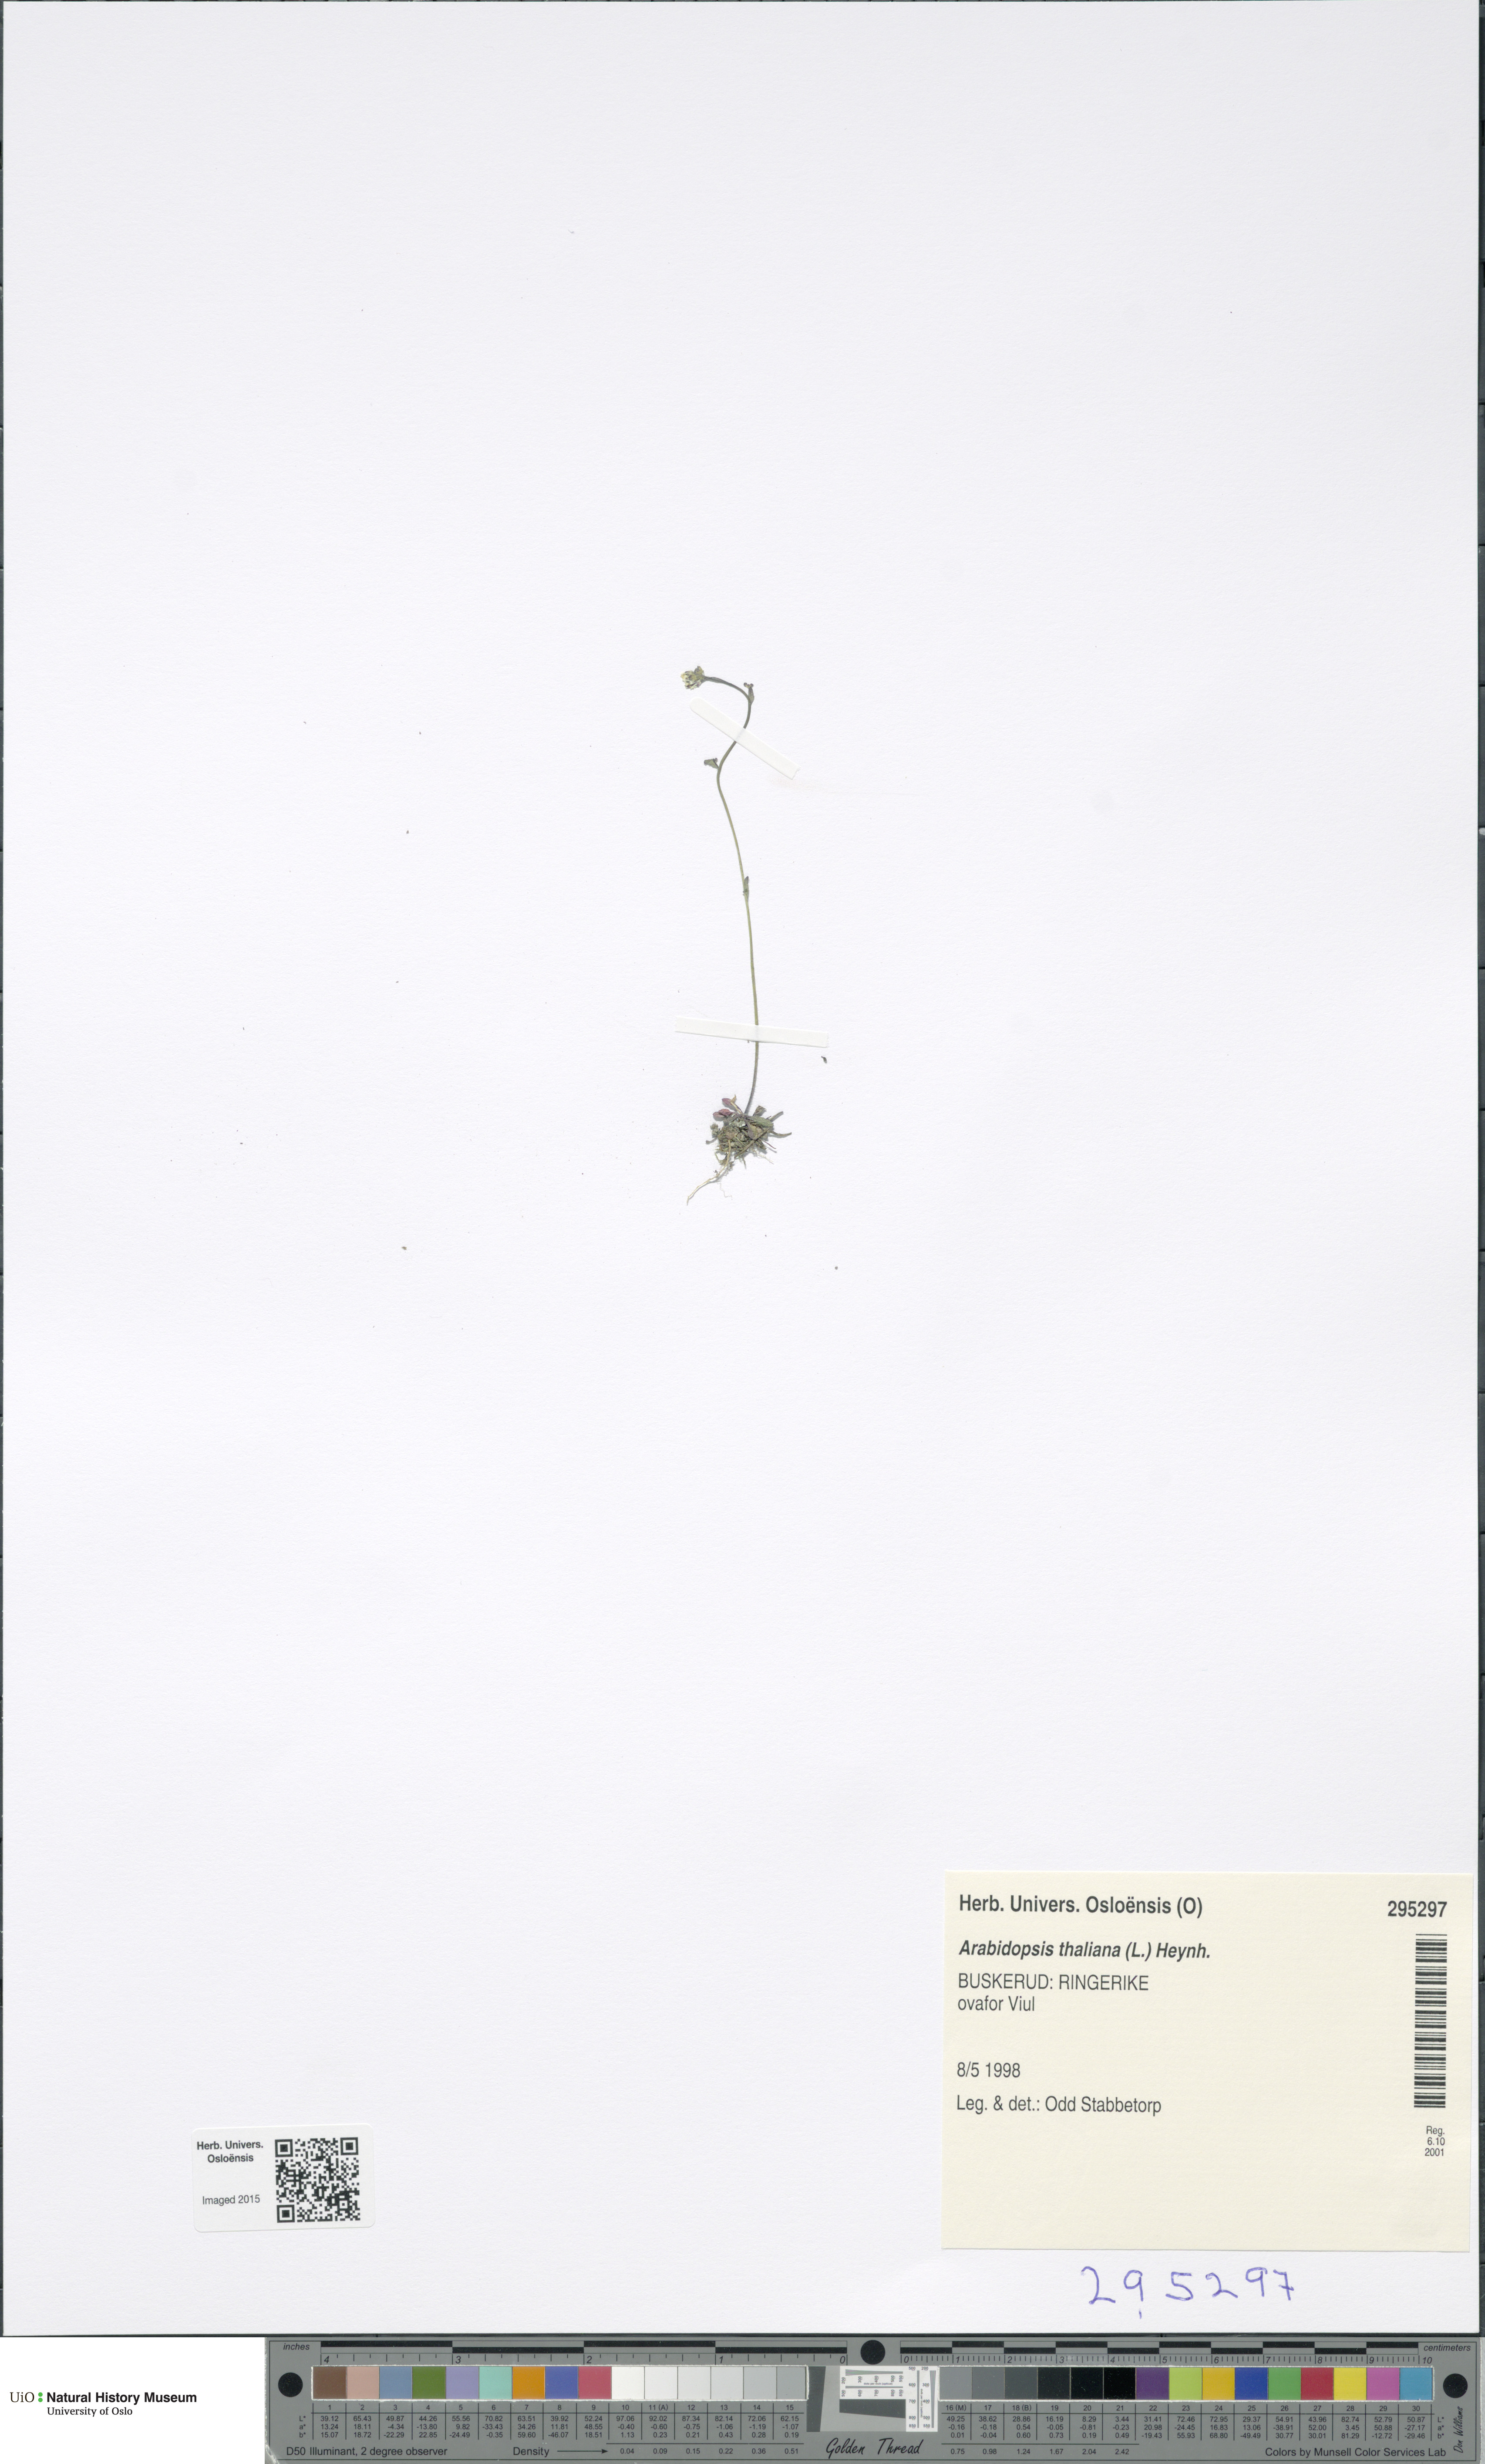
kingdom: Plantae
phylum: Tracheophyta
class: Magnoliopsida
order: Brassicales
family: Brassicaceae
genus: Arabidopsis
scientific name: Arabidopsis thaliana
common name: Thale cress
